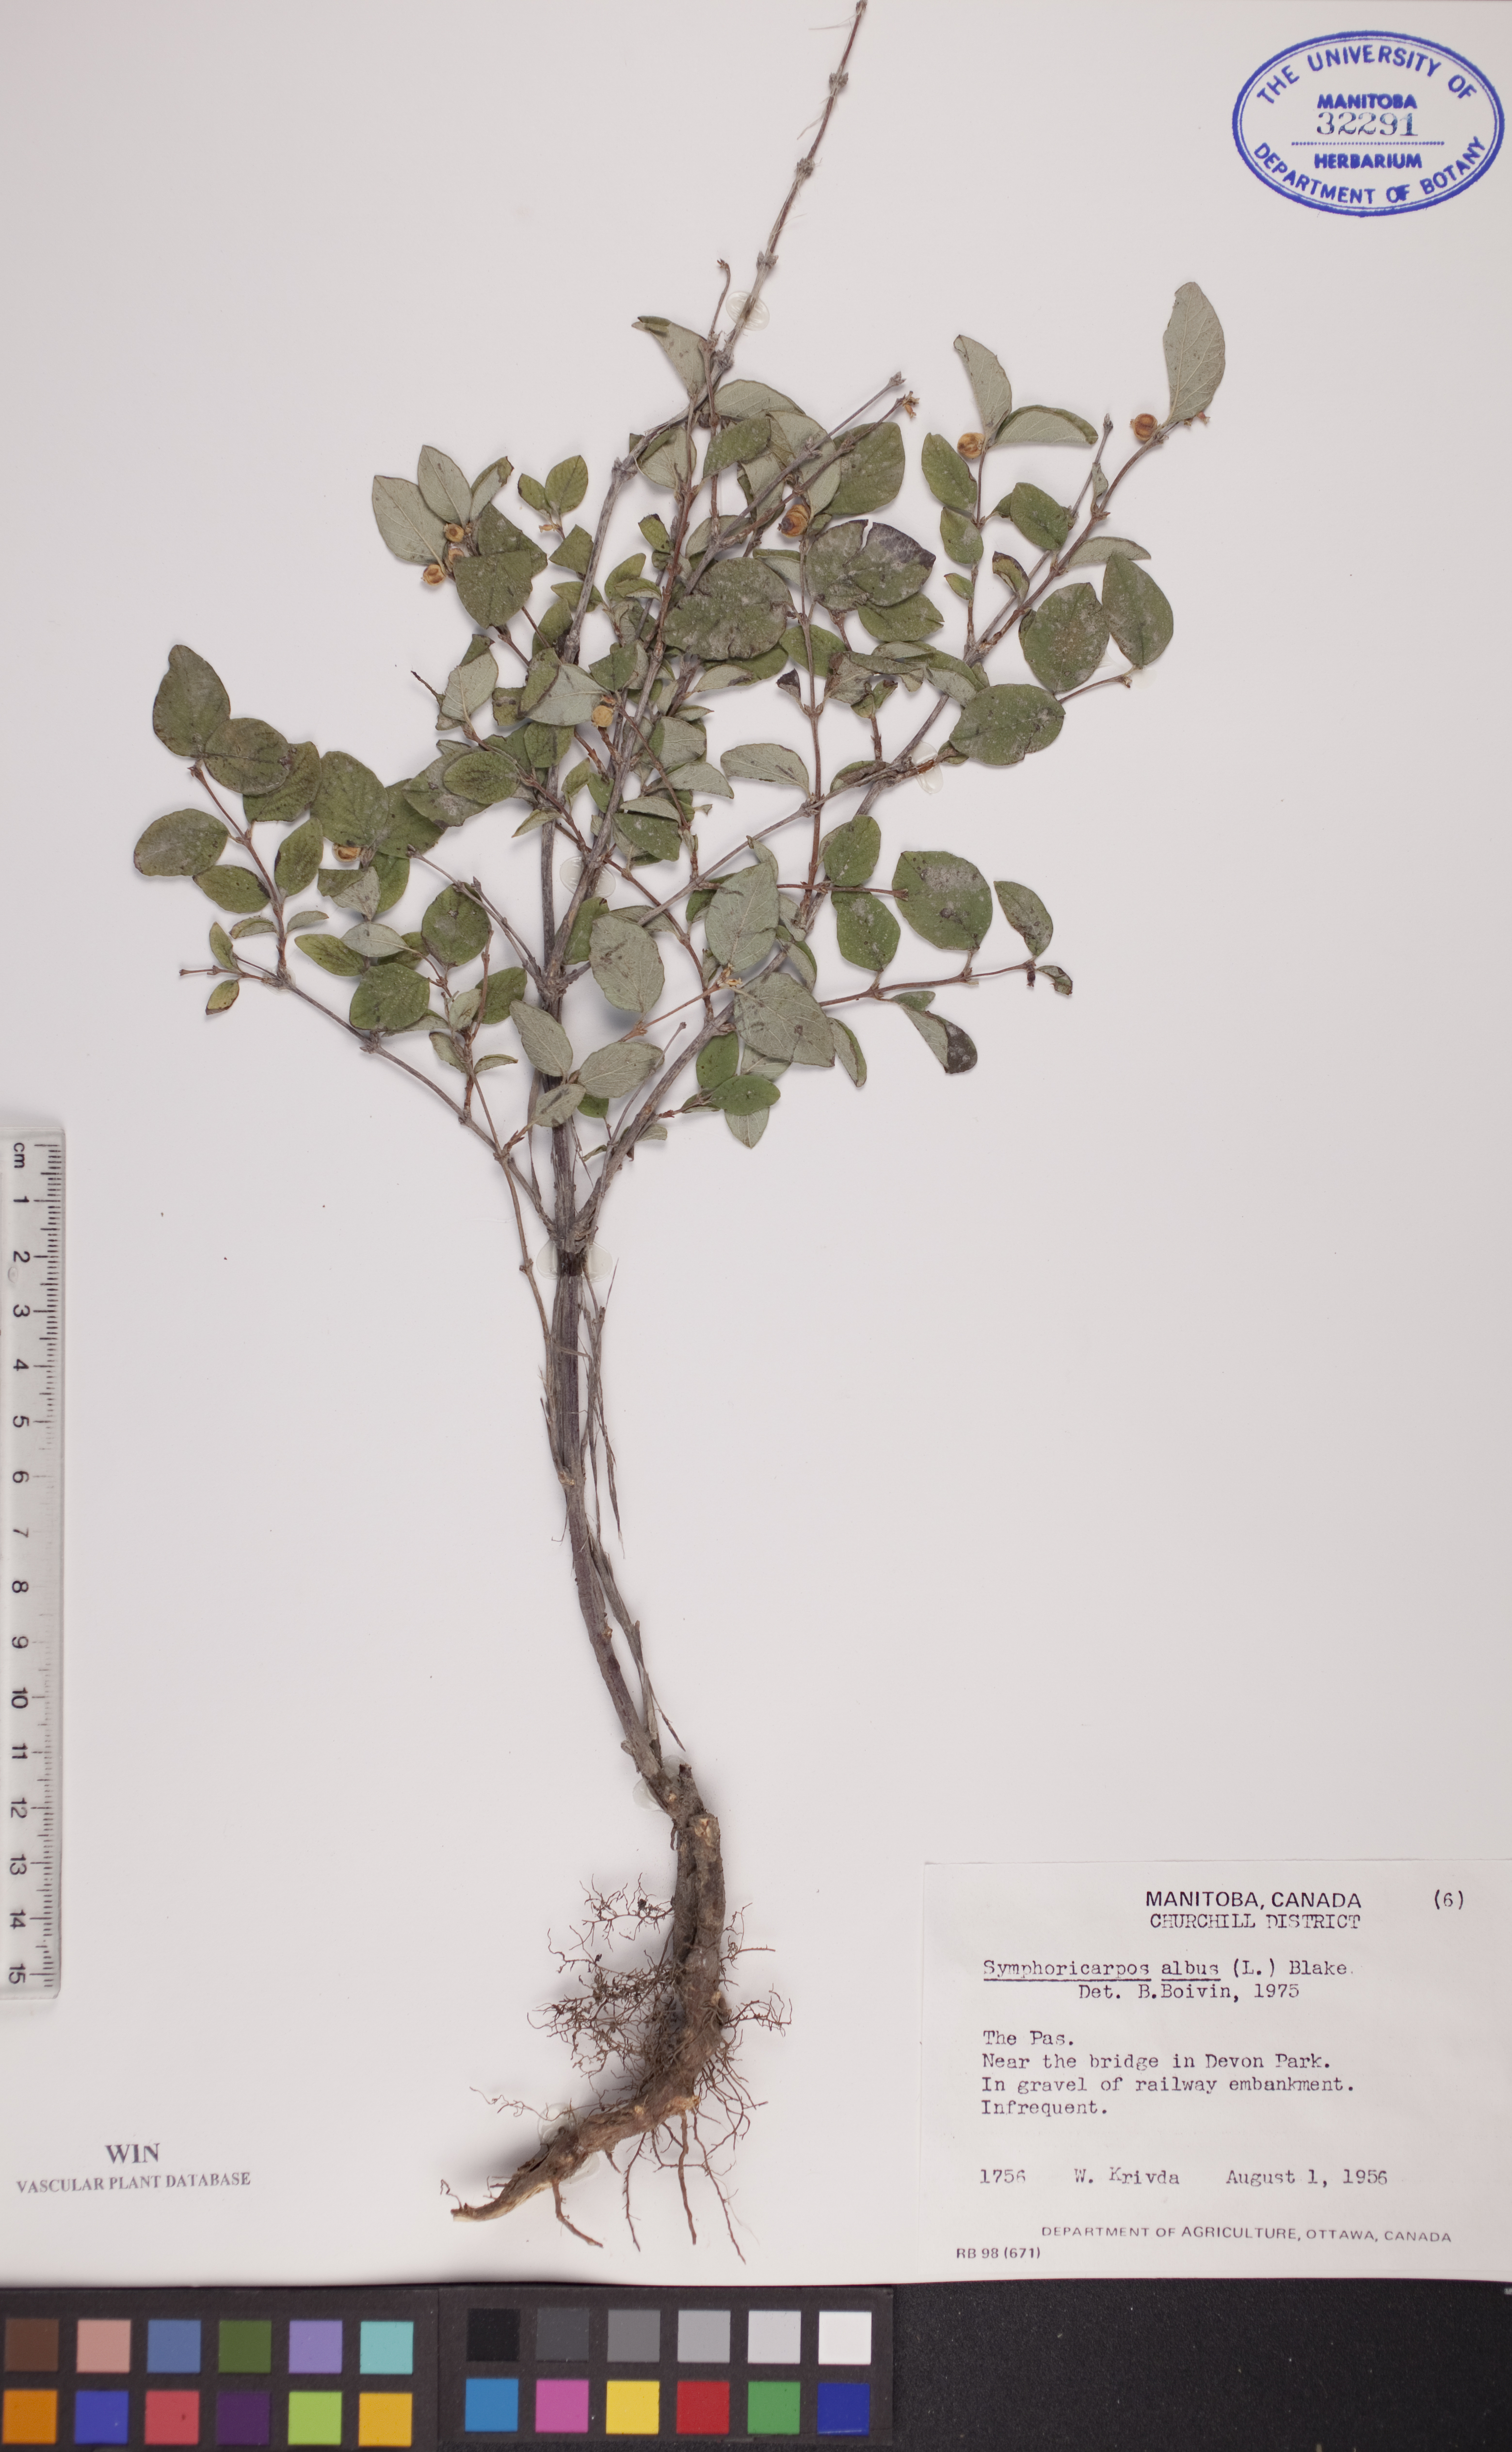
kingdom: Plantae
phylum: Tracheophyta
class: Magnoliopsida
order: Dipsacales
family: Caprifoliaceae
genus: Symphoricarpos
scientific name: Symphoricarpos albus
